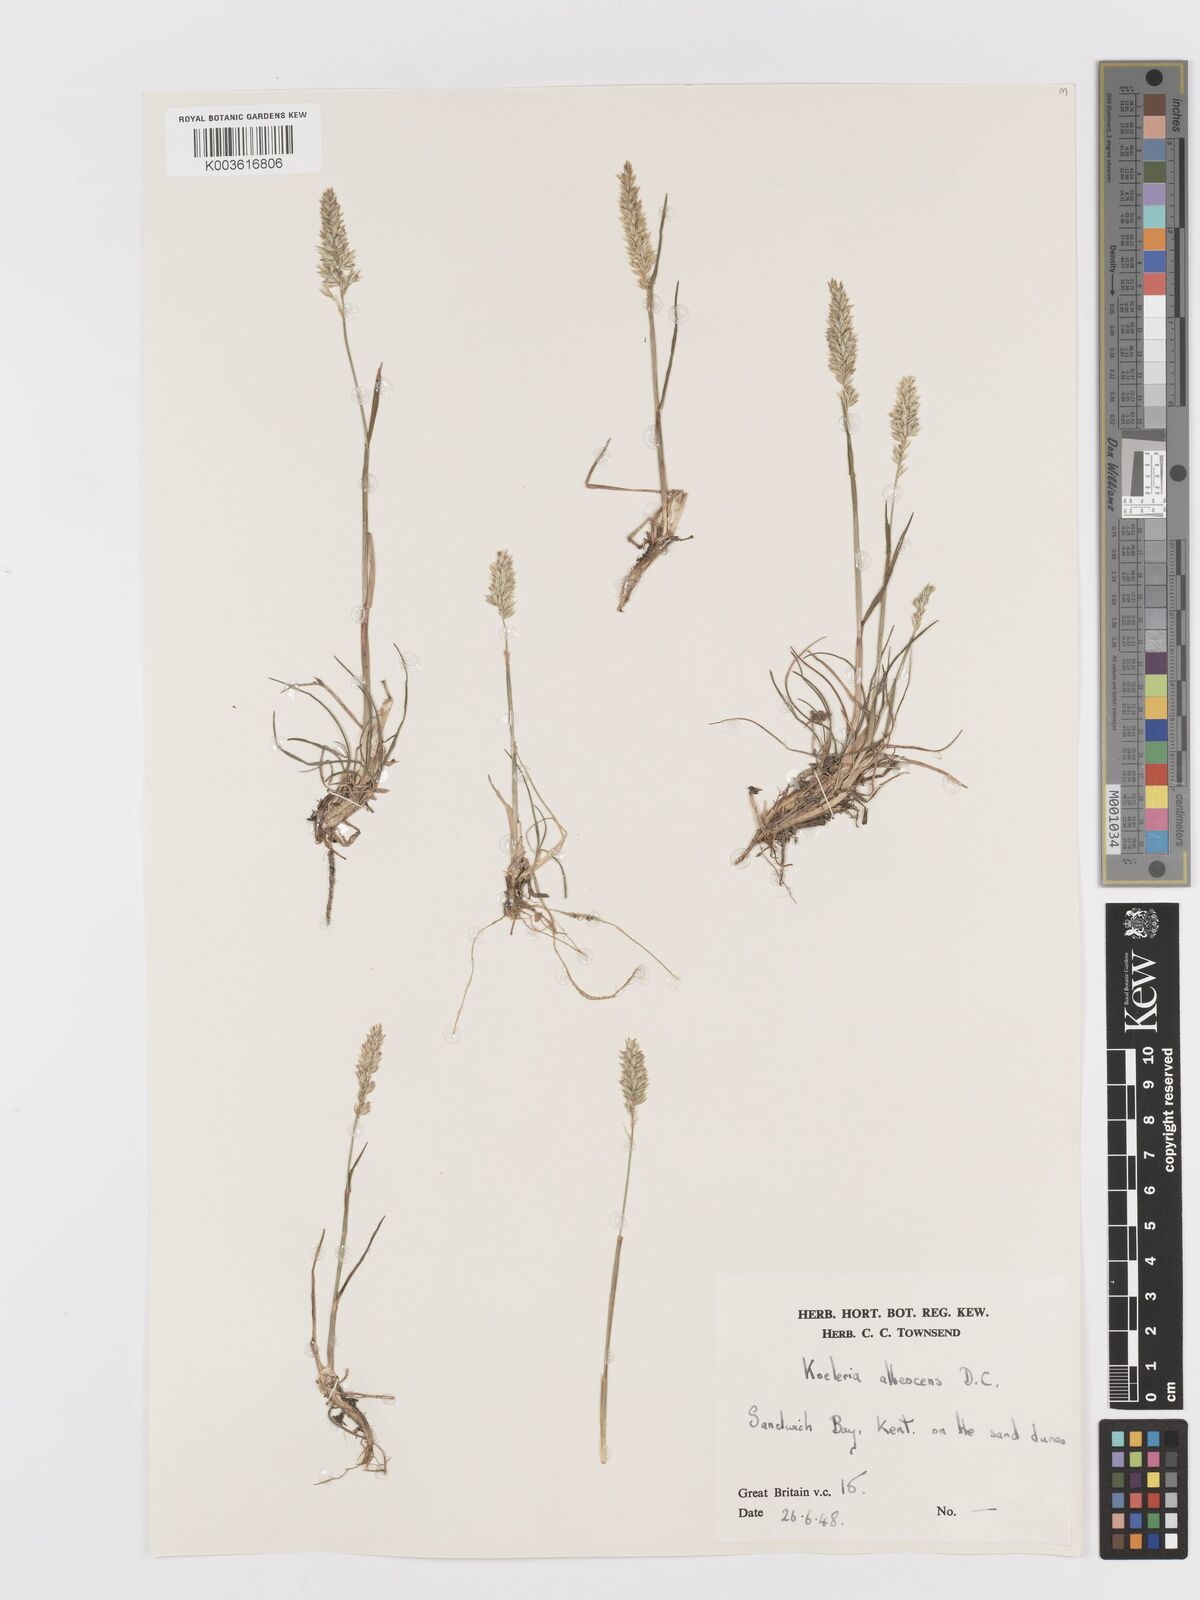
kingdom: Plantae
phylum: Tracheophyta
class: Liliopsida
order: Poales
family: Poaceae
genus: Koeleria
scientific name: Koeleria macrantha
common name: Crested hair-grass
